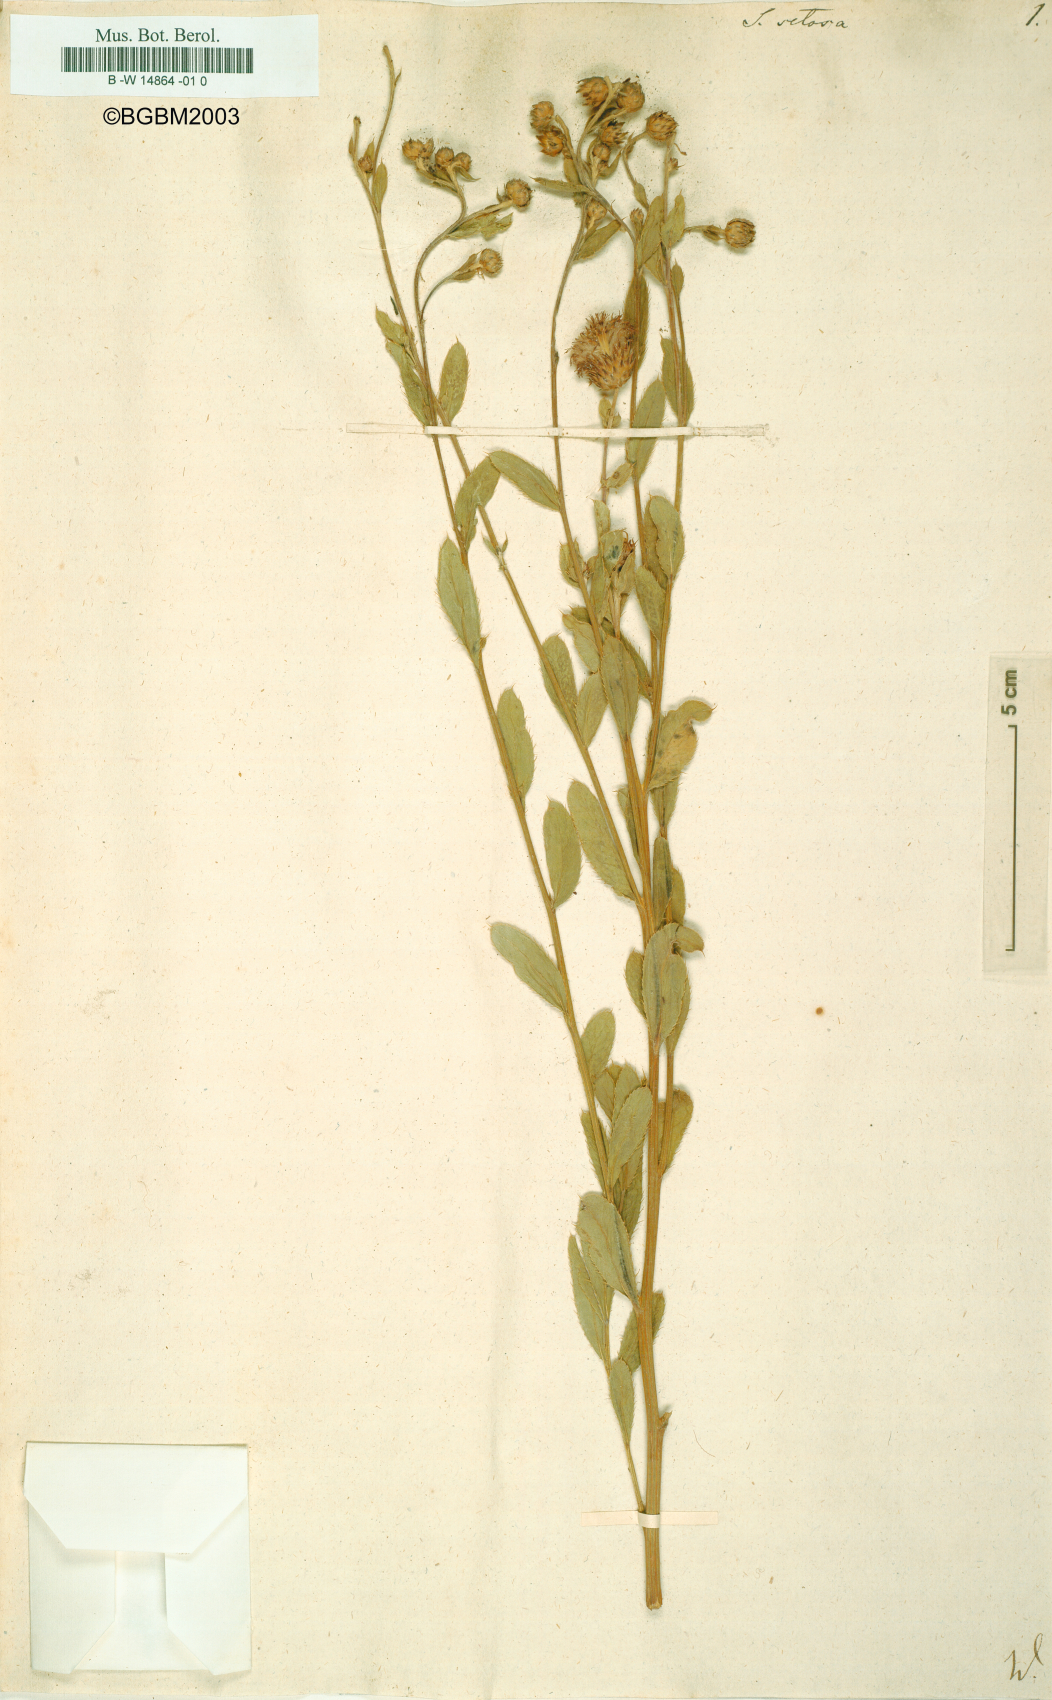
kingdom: Plantae
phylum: Tracheophyta
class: Magnoliopsida
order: Asterales
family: Asteraceae
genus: Cirsium
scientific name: Cirsium arvense
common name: Creeping thistle
